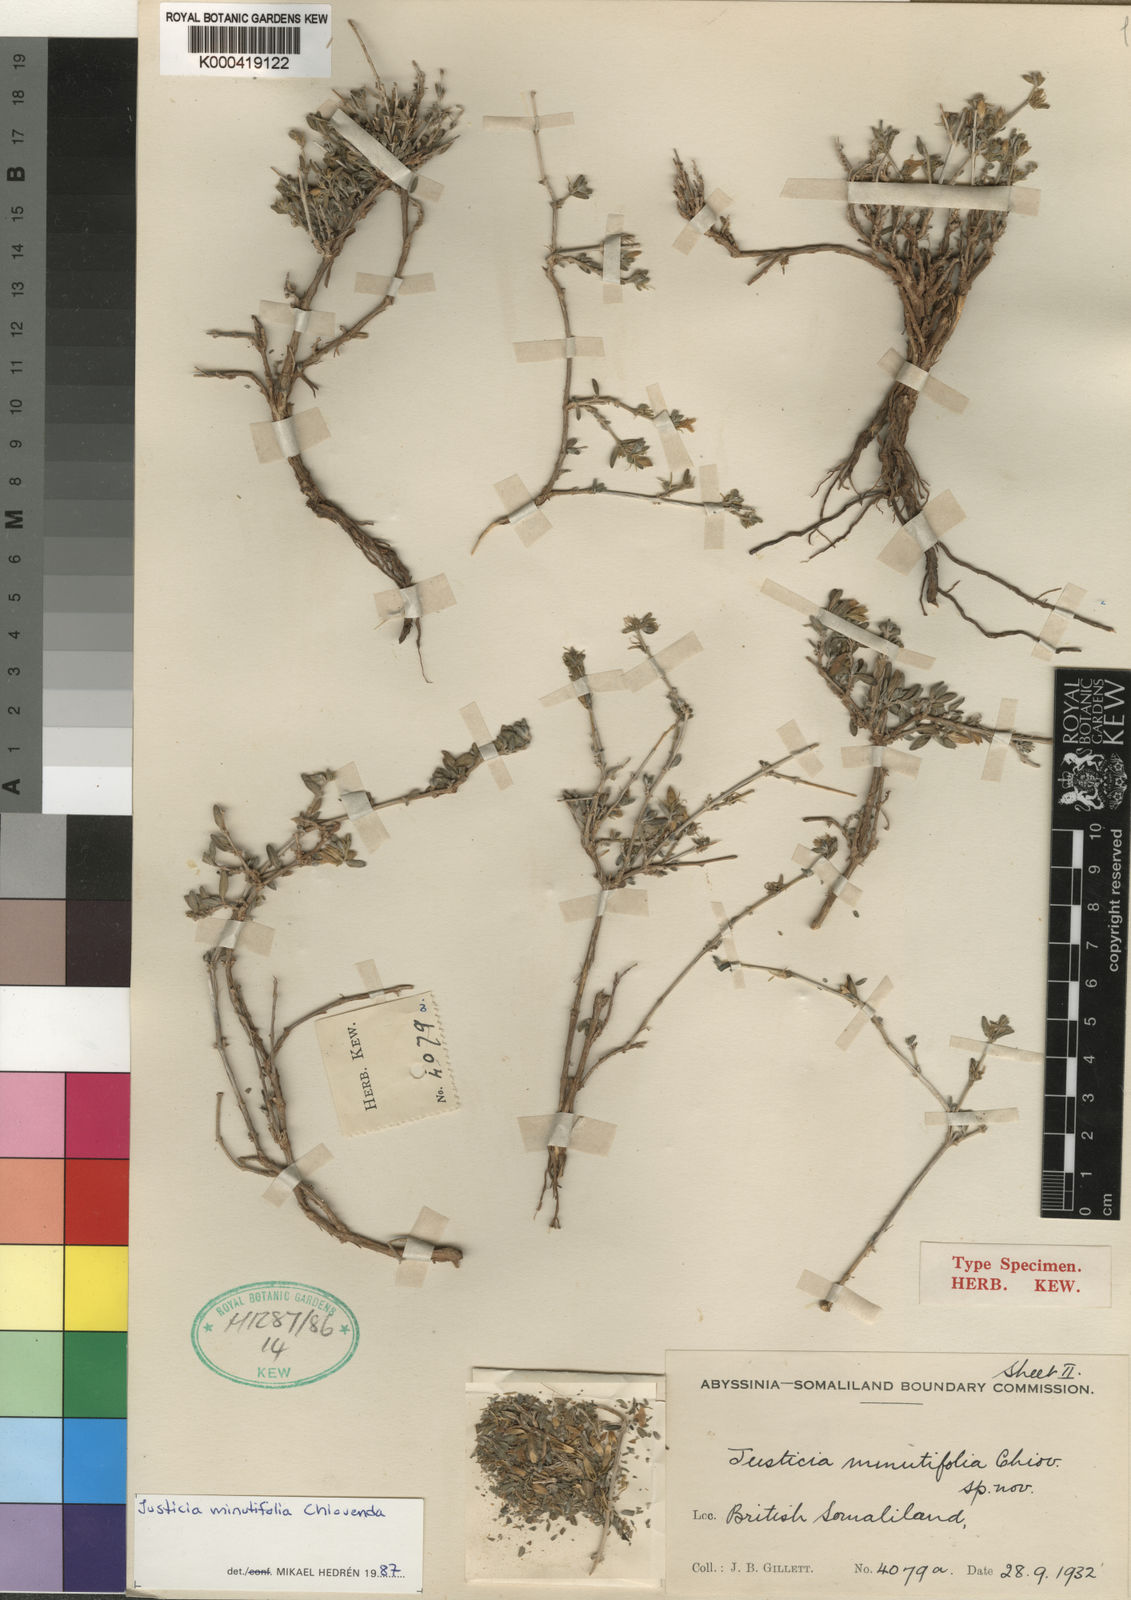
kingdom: Plantae
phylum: Tracheophyta
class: Magnoliopsida
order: Lamiales
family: Acanthaceae
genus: Justicia
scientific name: Justicia minutifolia
